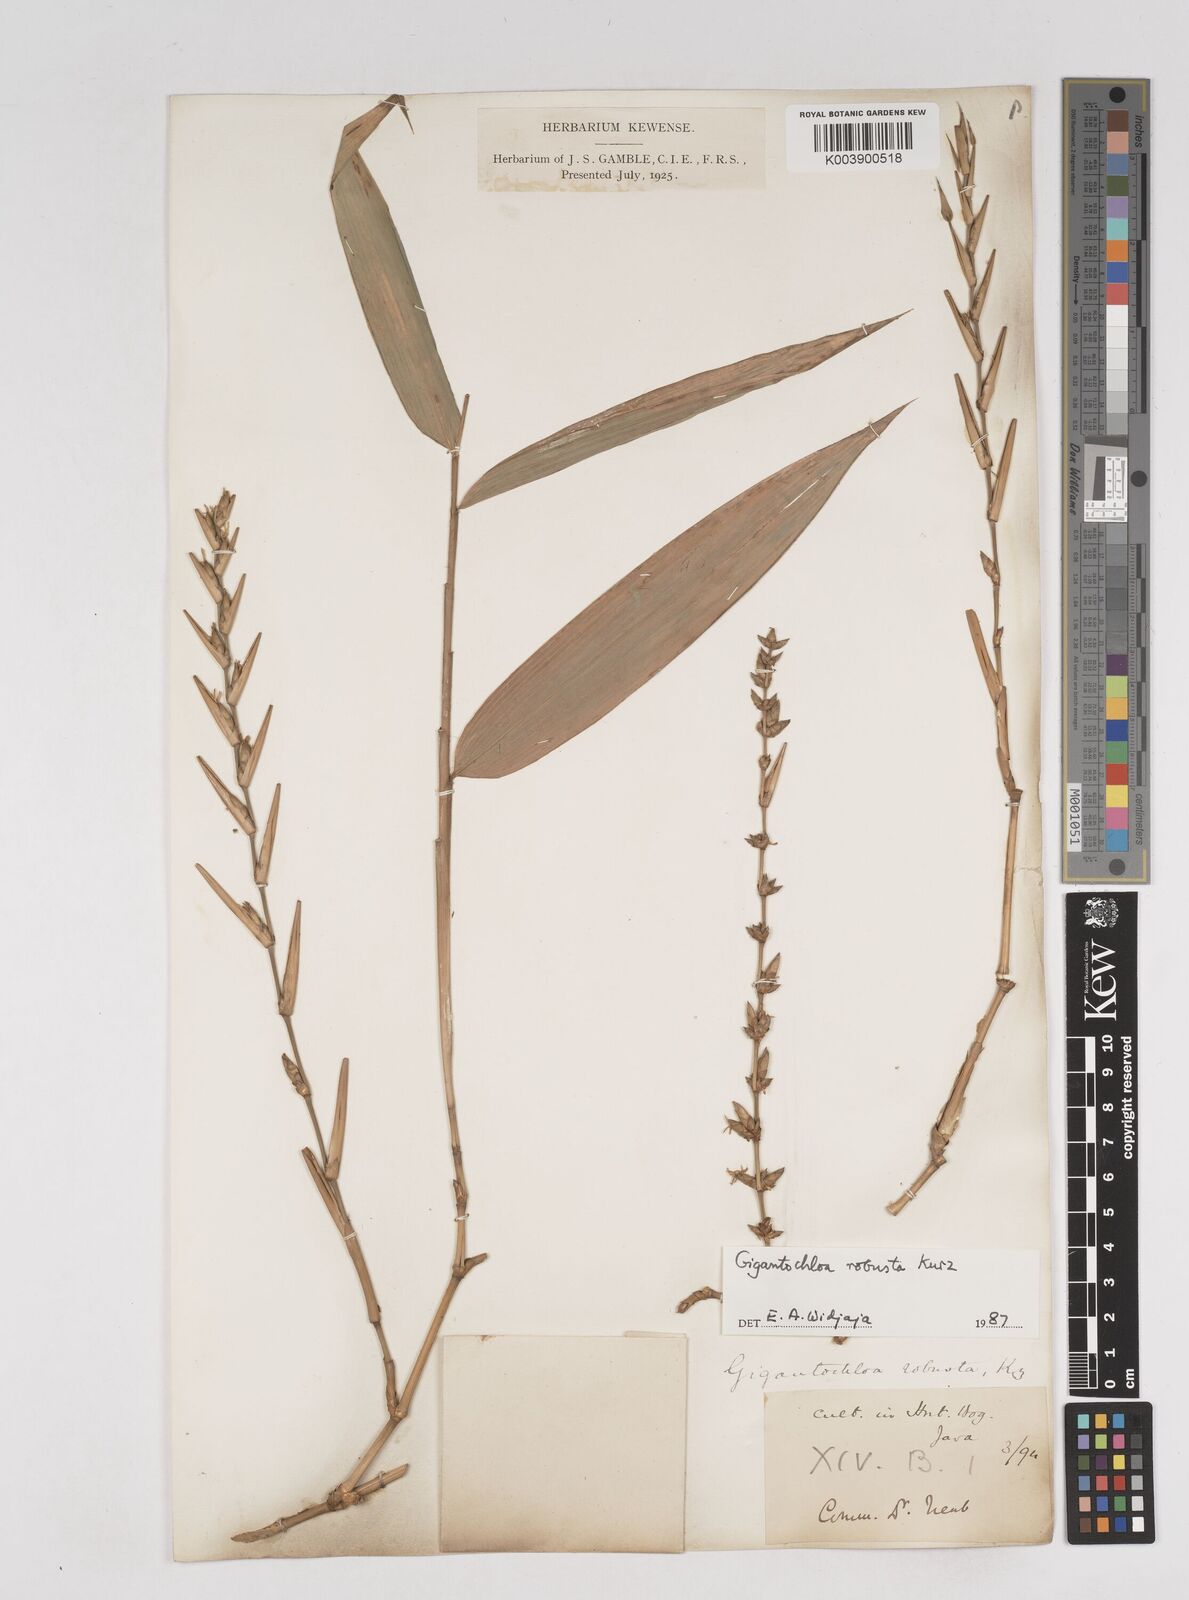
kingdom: Plantae
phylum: Tracheophyta
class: Liliopsida
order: Poales
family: Poaceae
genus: Gigantochloa
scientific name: Gigantochloa robusta
